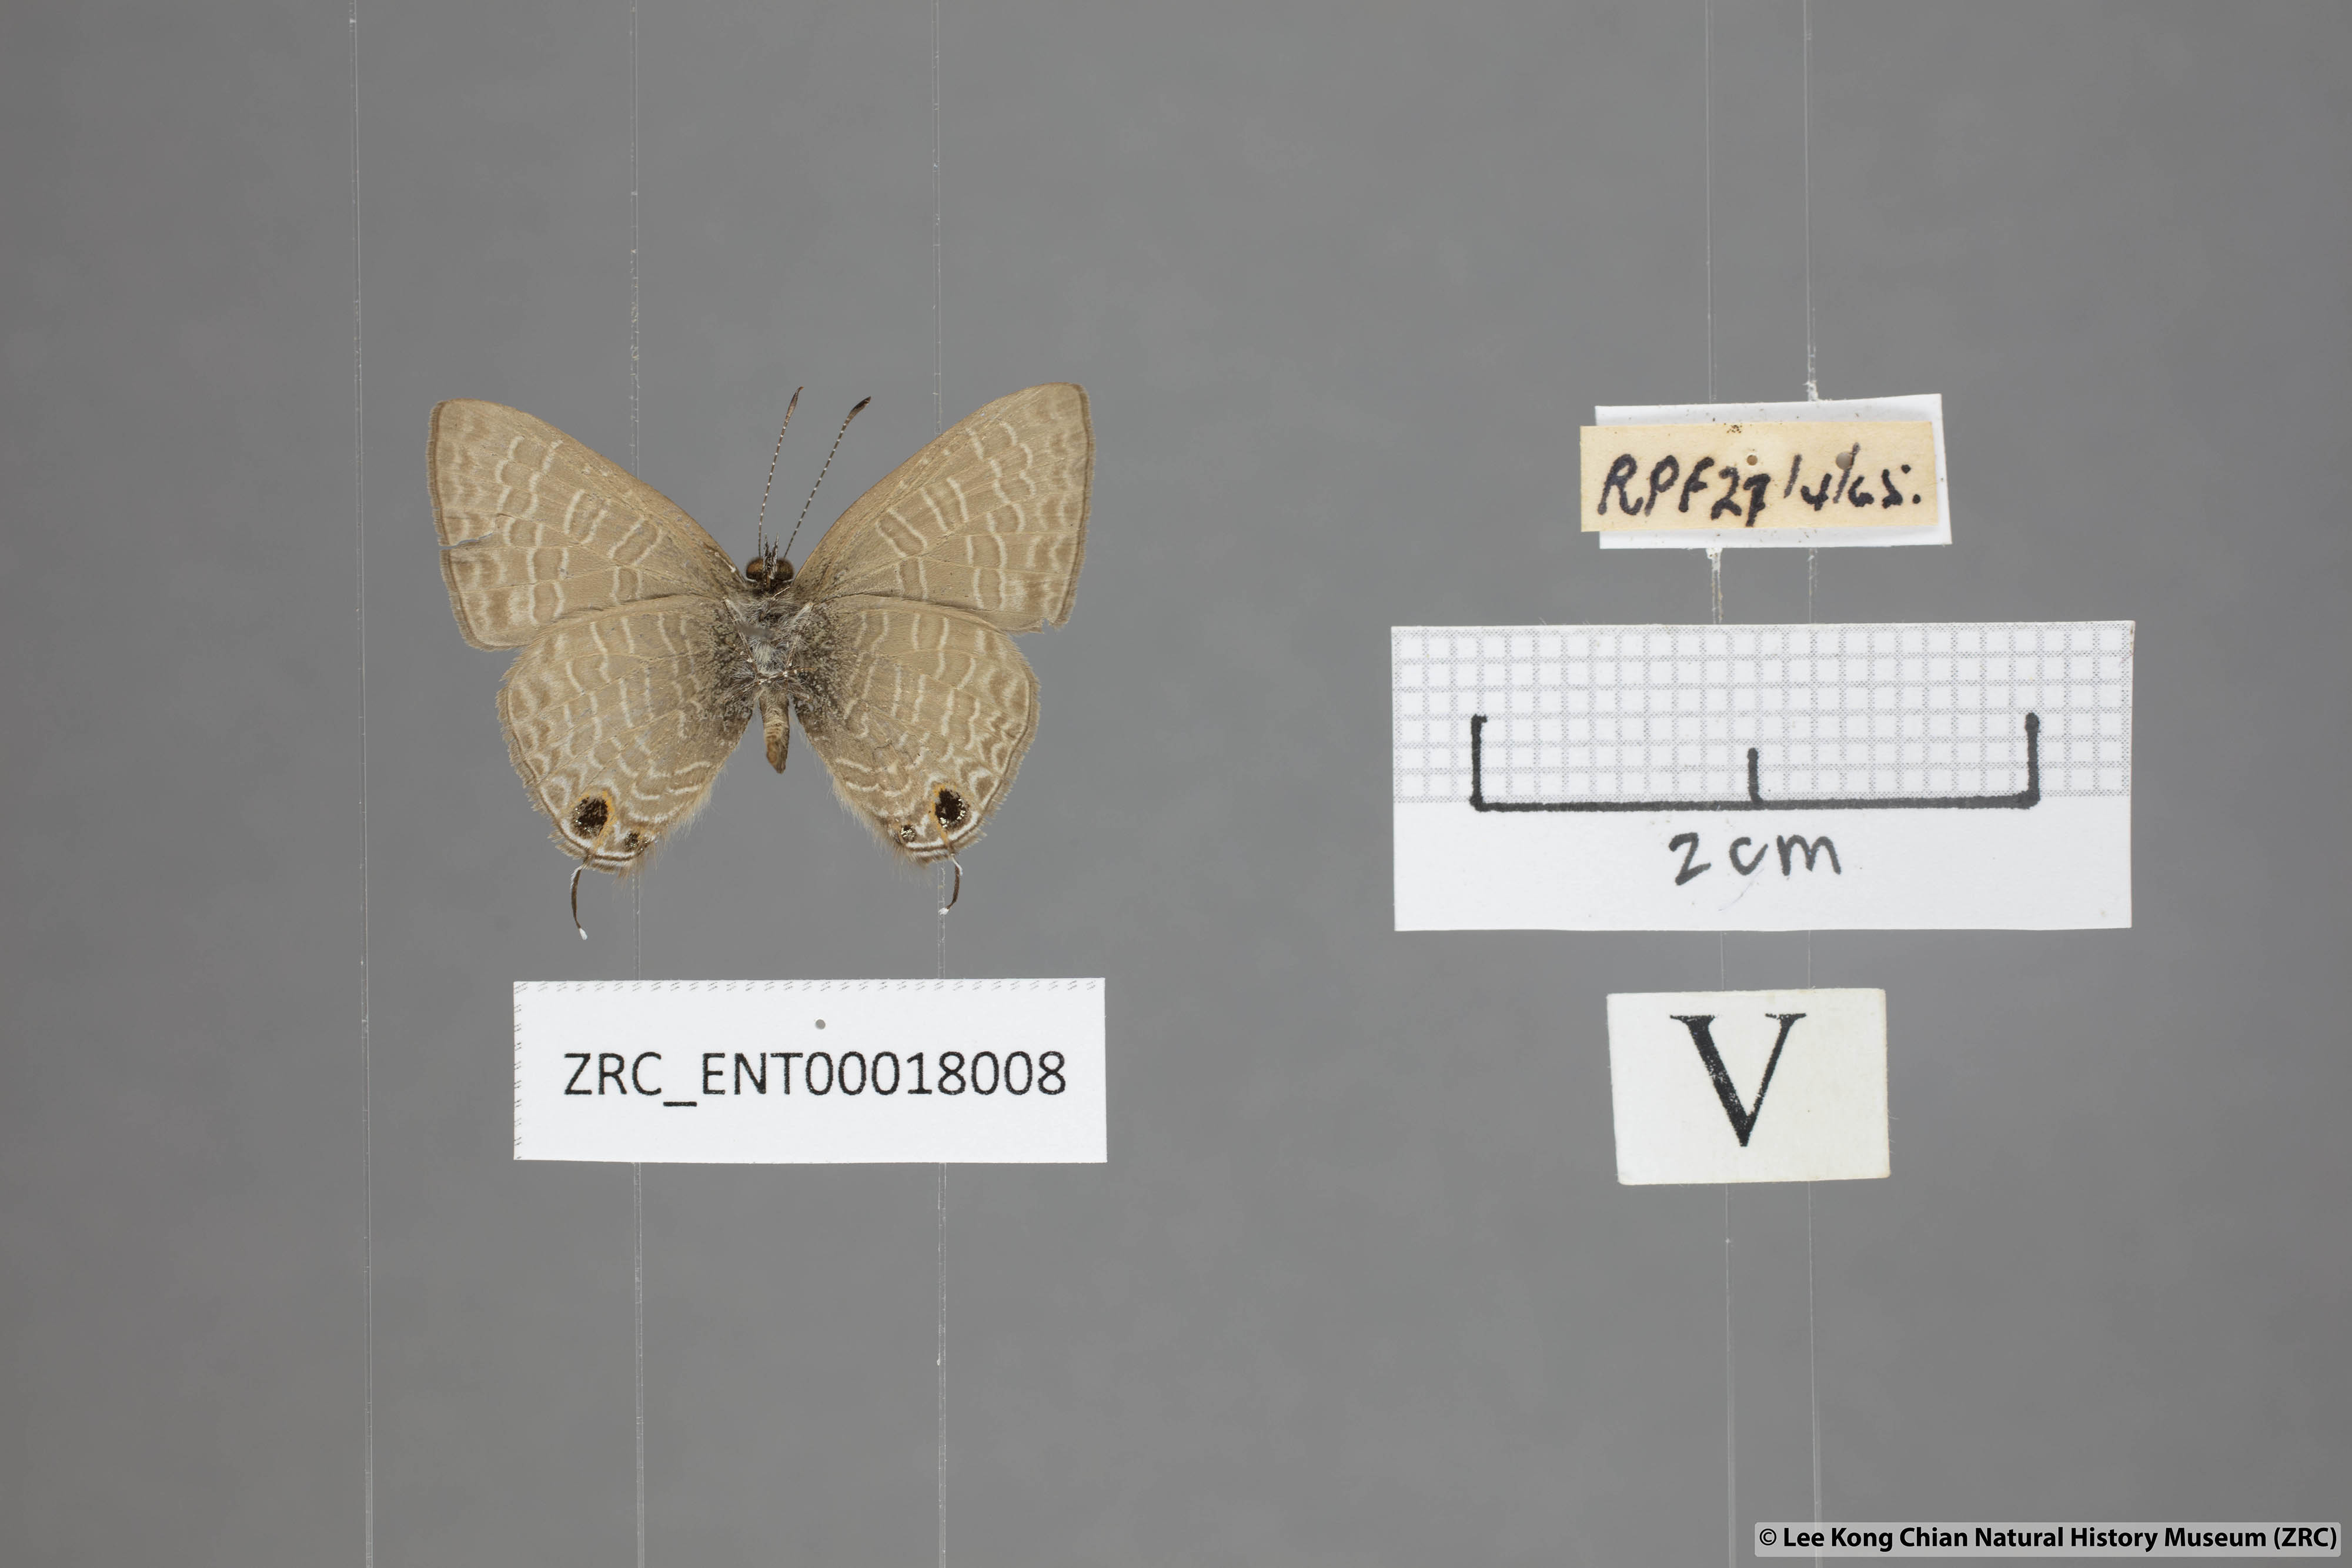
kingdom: Animalia
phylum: Arthropoda
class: Insecta
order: Lepidoptera
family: Lycaenidae
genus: Ionolyce
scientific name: Ionolyce helicon
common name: Pointed line blue
